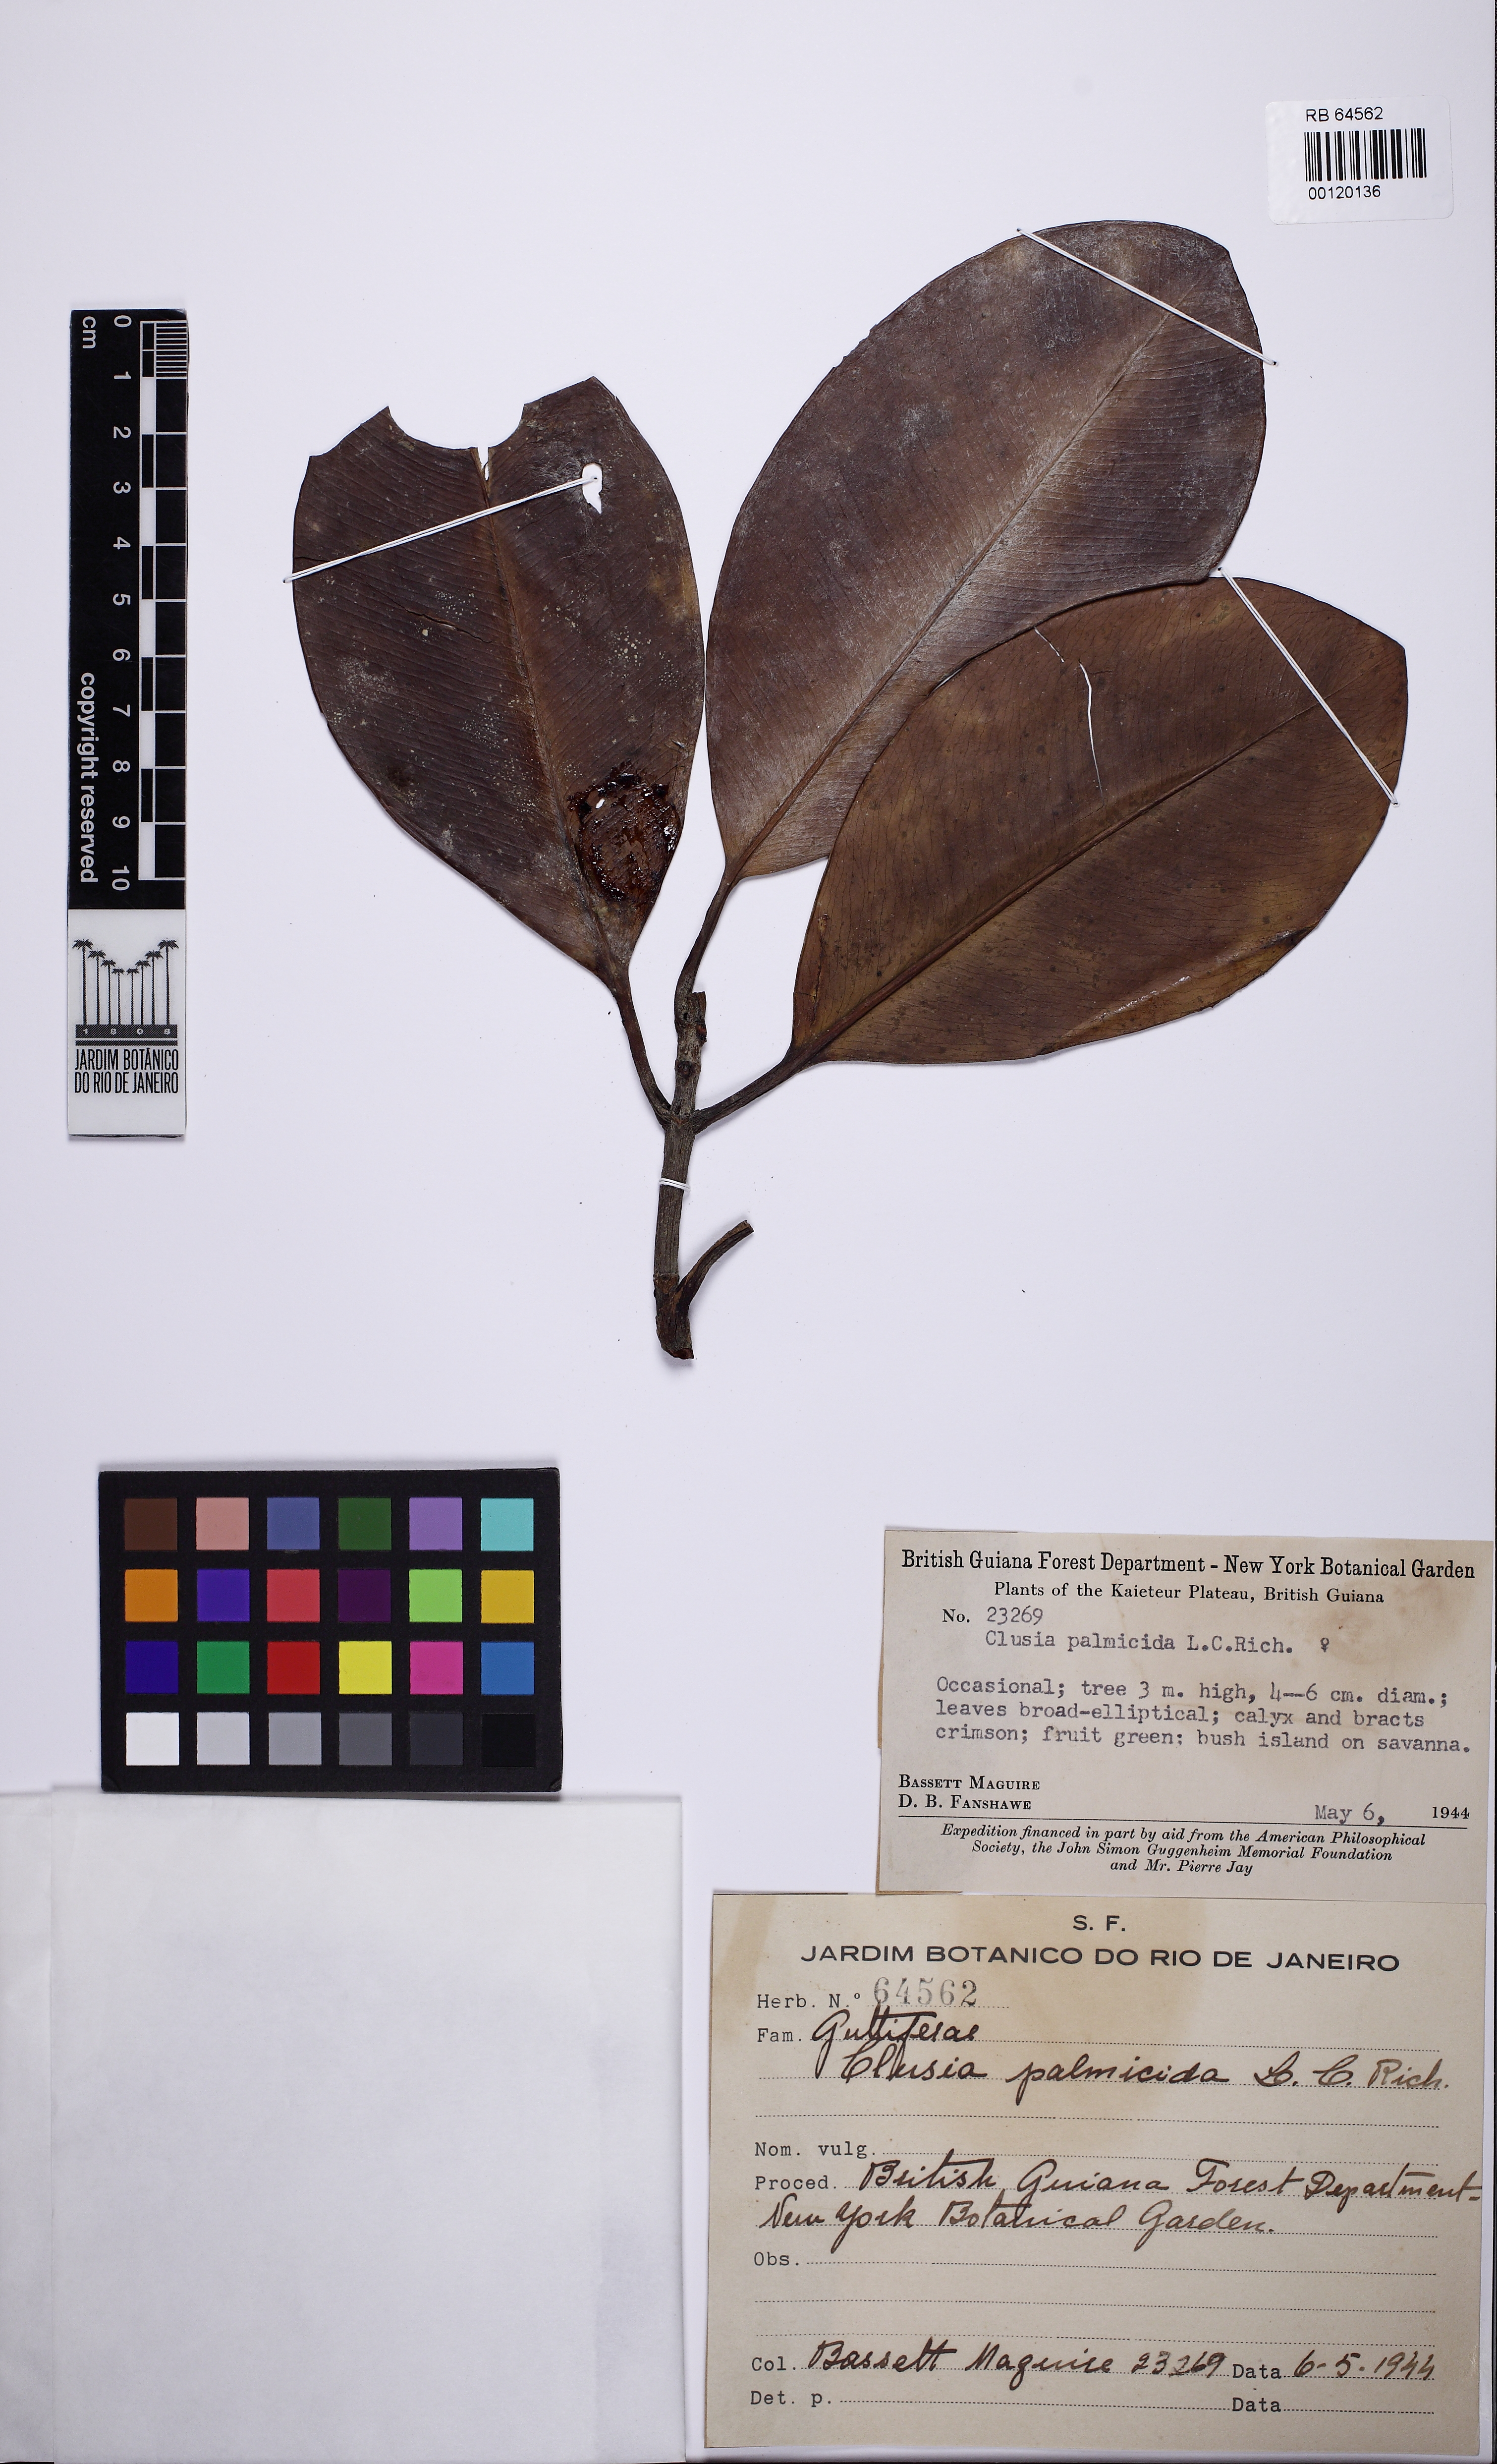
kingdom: Plantae
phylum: Tracheophyta
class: Magnoliopsida
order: Malpighiales
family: Clusiaceae
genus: Clusia
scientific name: Clusia palmicida
